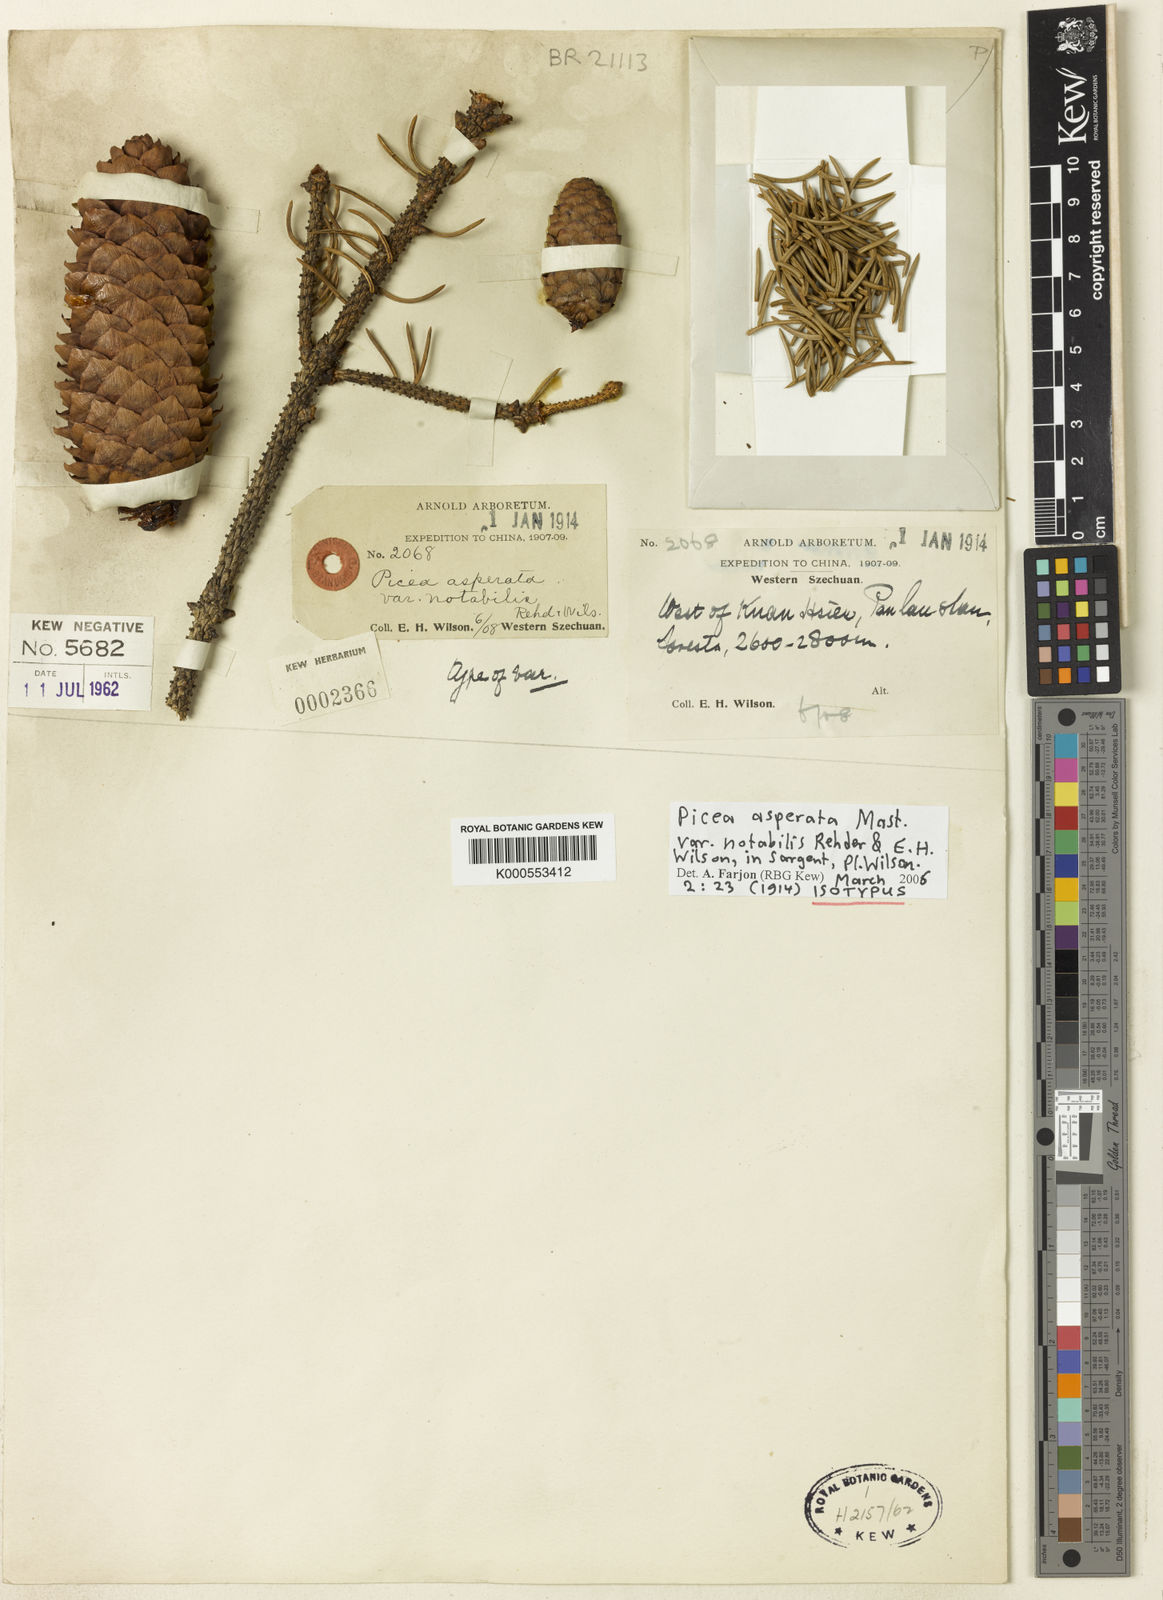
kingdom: Plantae
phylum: Tracheophyta
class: Pinopsida
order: Pinales
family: Pinaceae
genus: Picea
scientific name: Picea asperata
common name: Dragon spruce
